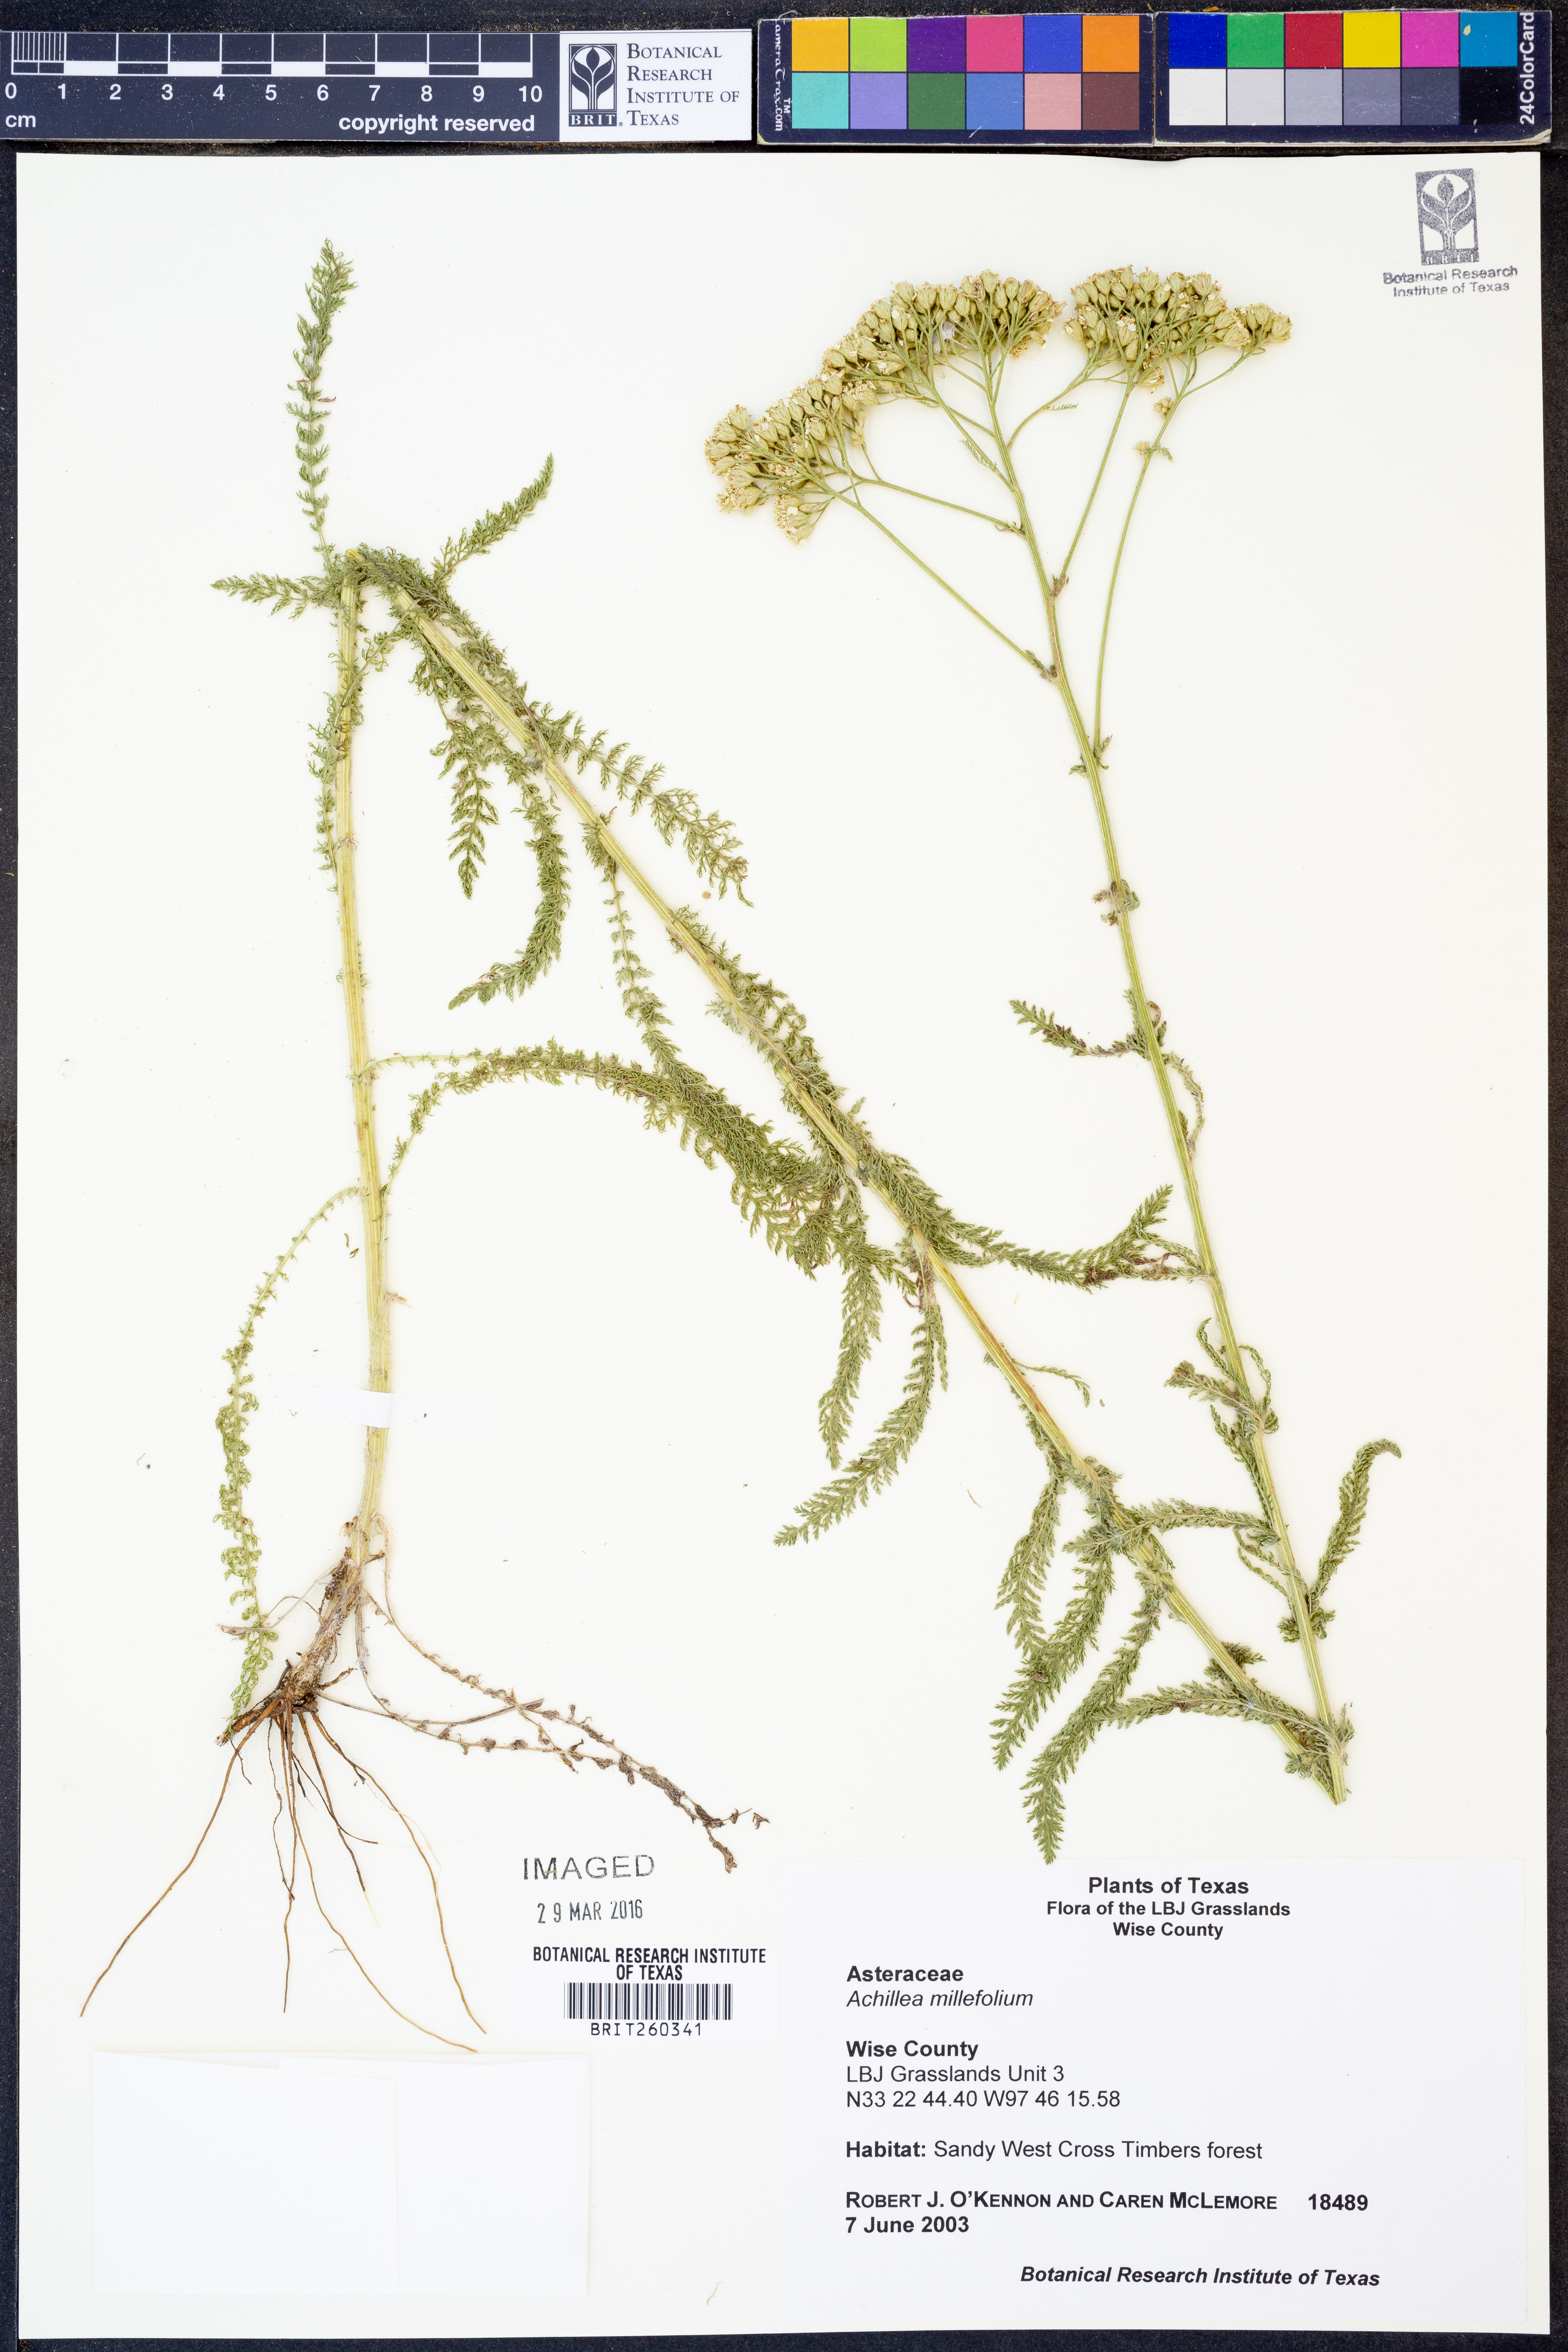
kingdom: Plantae
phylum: Tracheophyta
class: Magnoliopsida
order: Asterales
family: Asteraceae
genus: Achillea
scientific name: Achillea millefolium
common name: Yarrow
